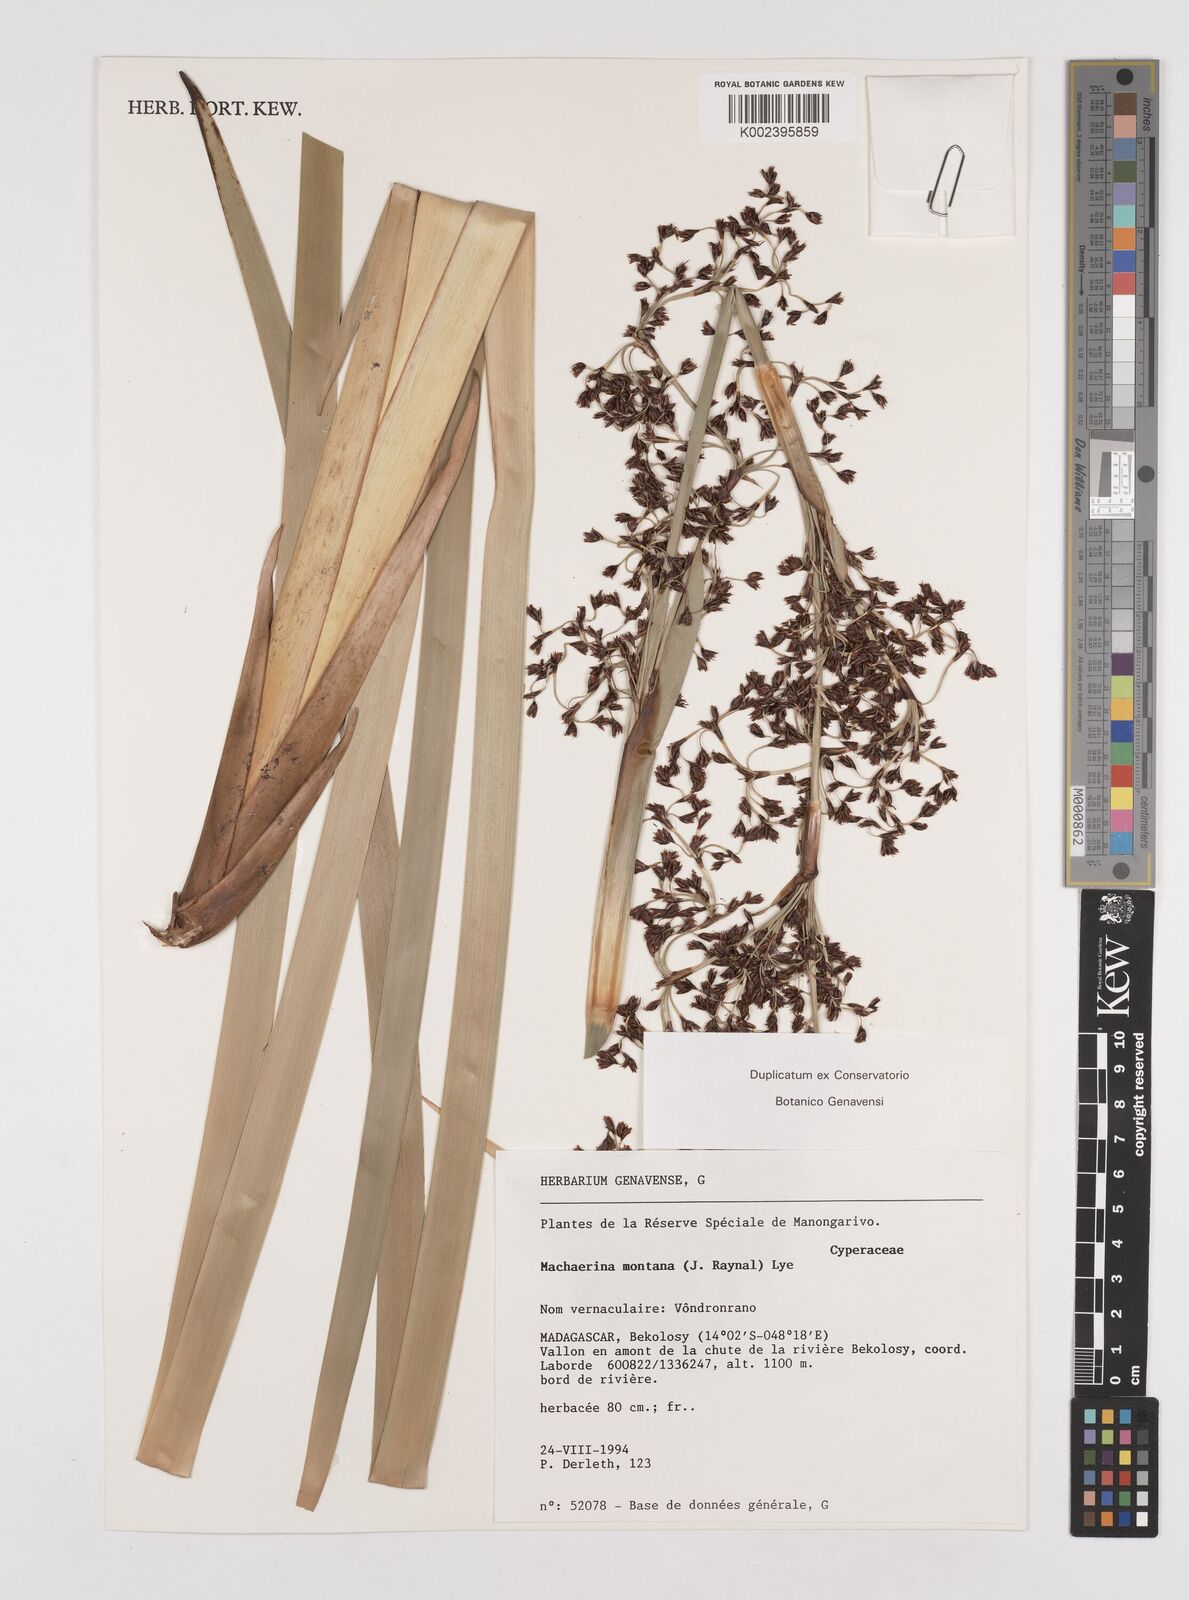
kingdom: Plantae
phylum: Tracheophyta
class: Liliopsida
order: Poales
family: Cyperaceae
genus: Machaerina
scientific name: Machaerina montana
